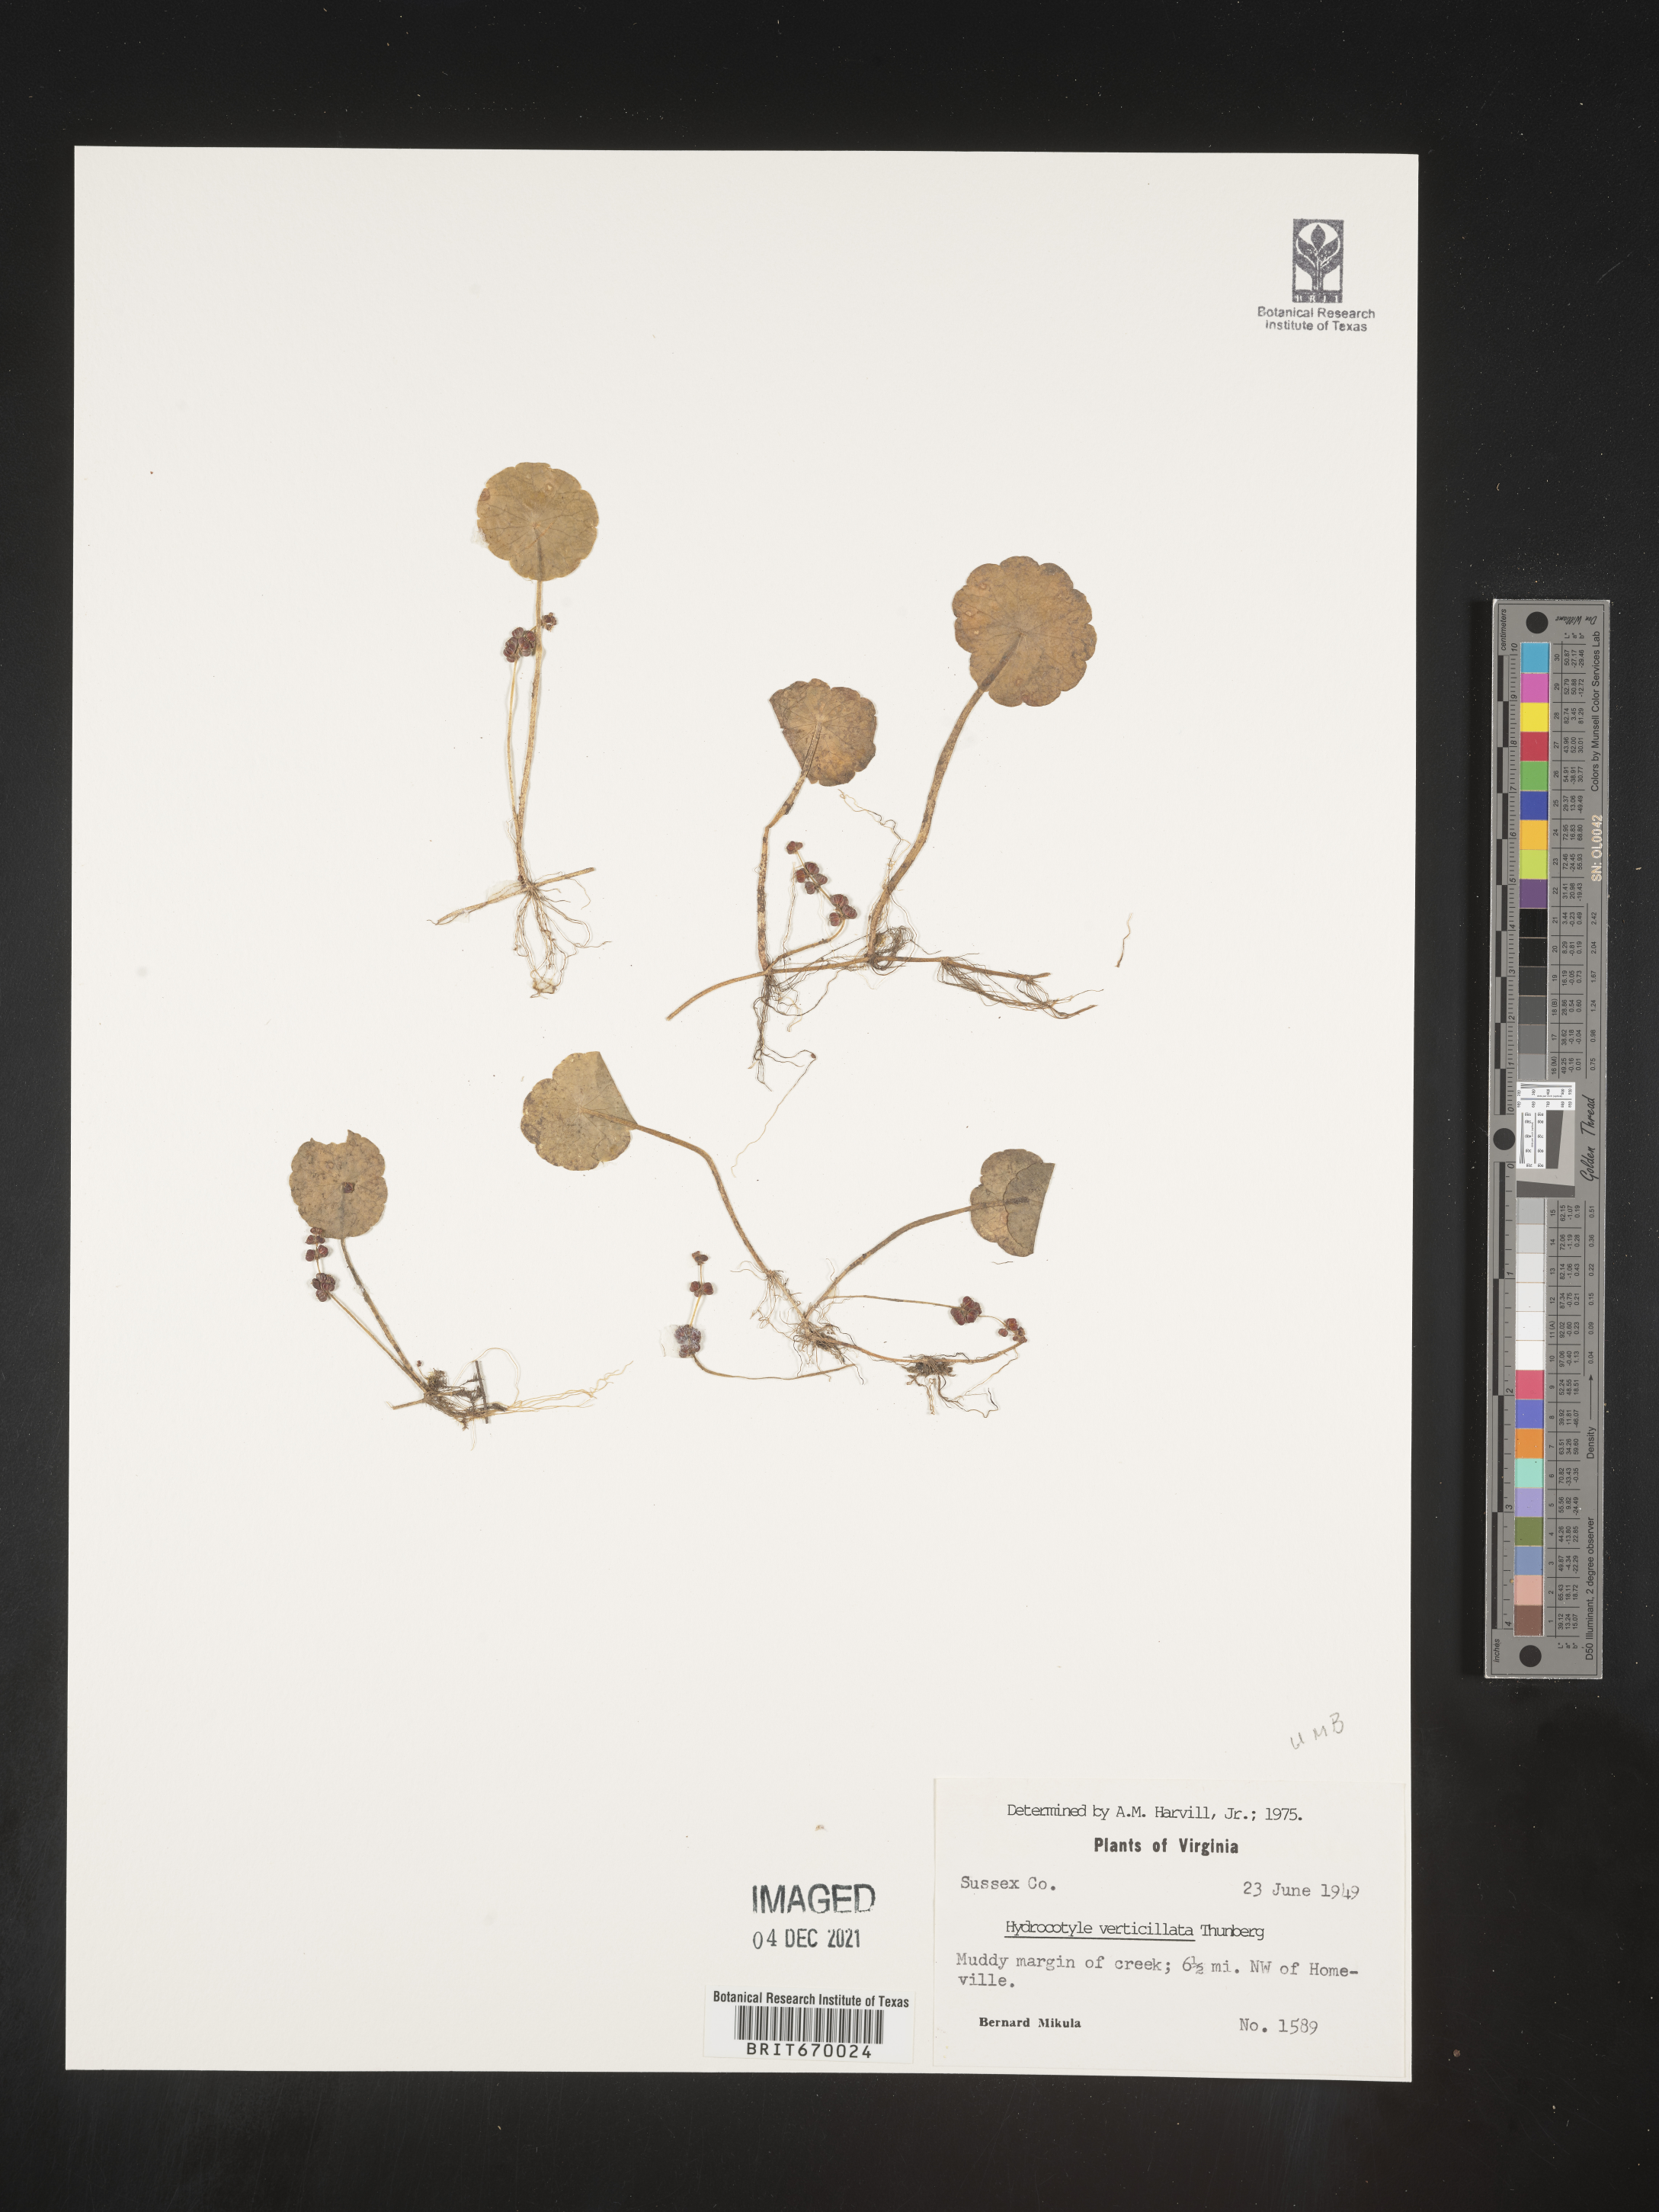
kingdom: Plantae
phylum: Tracheophyta
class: Magnoliopsida
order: Apiales
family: Araliaceae
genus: Hydrocotyle
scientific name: Hydrocotyle verticillata
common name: Whorled marshpennywort
